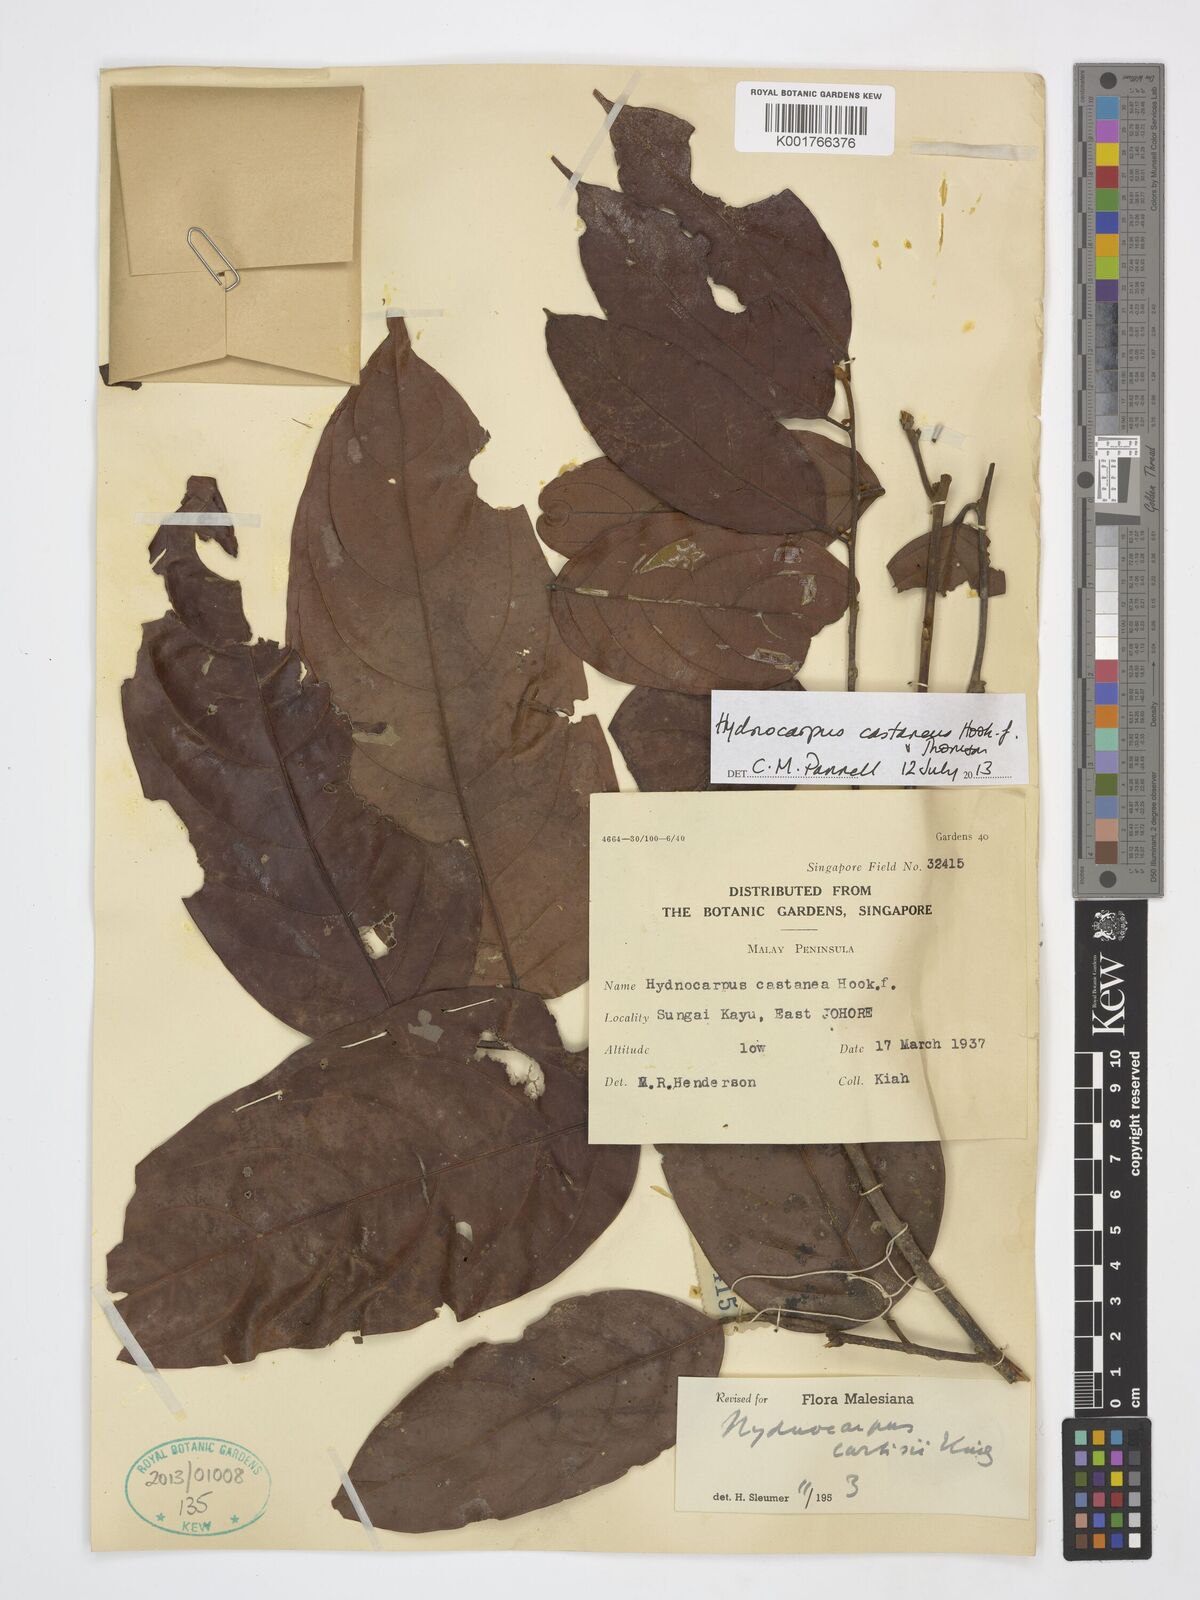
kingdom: Plantae
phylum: Tracheophyta
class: Magnoliopsida
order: Malpighiales
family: Achariaceae
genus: Hydnocarpus
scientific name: Hydnocarpus castaneus
